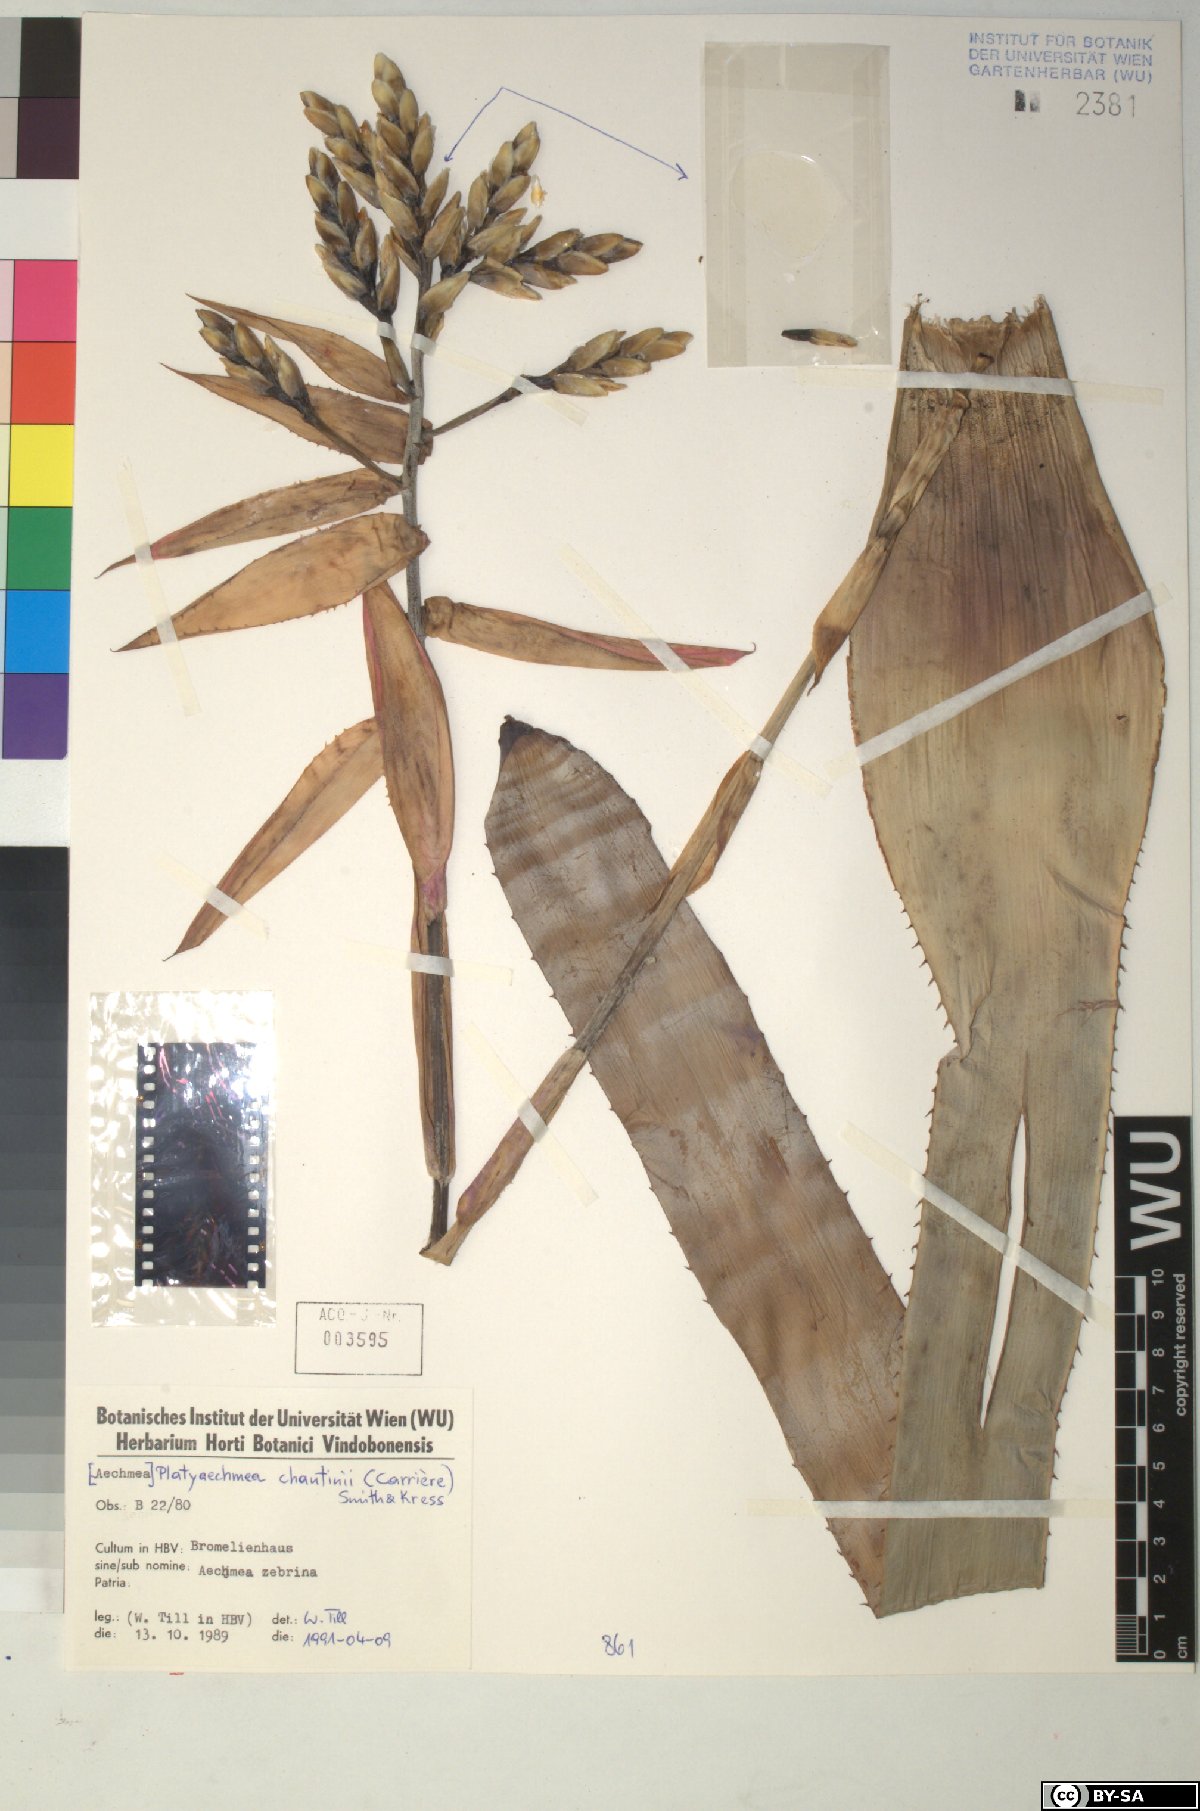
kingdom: Plantae
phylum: Tracheophyta
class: Liliopsida
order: Poales
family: Bromeliaceae
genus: Aechmea
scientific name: Aechmea
